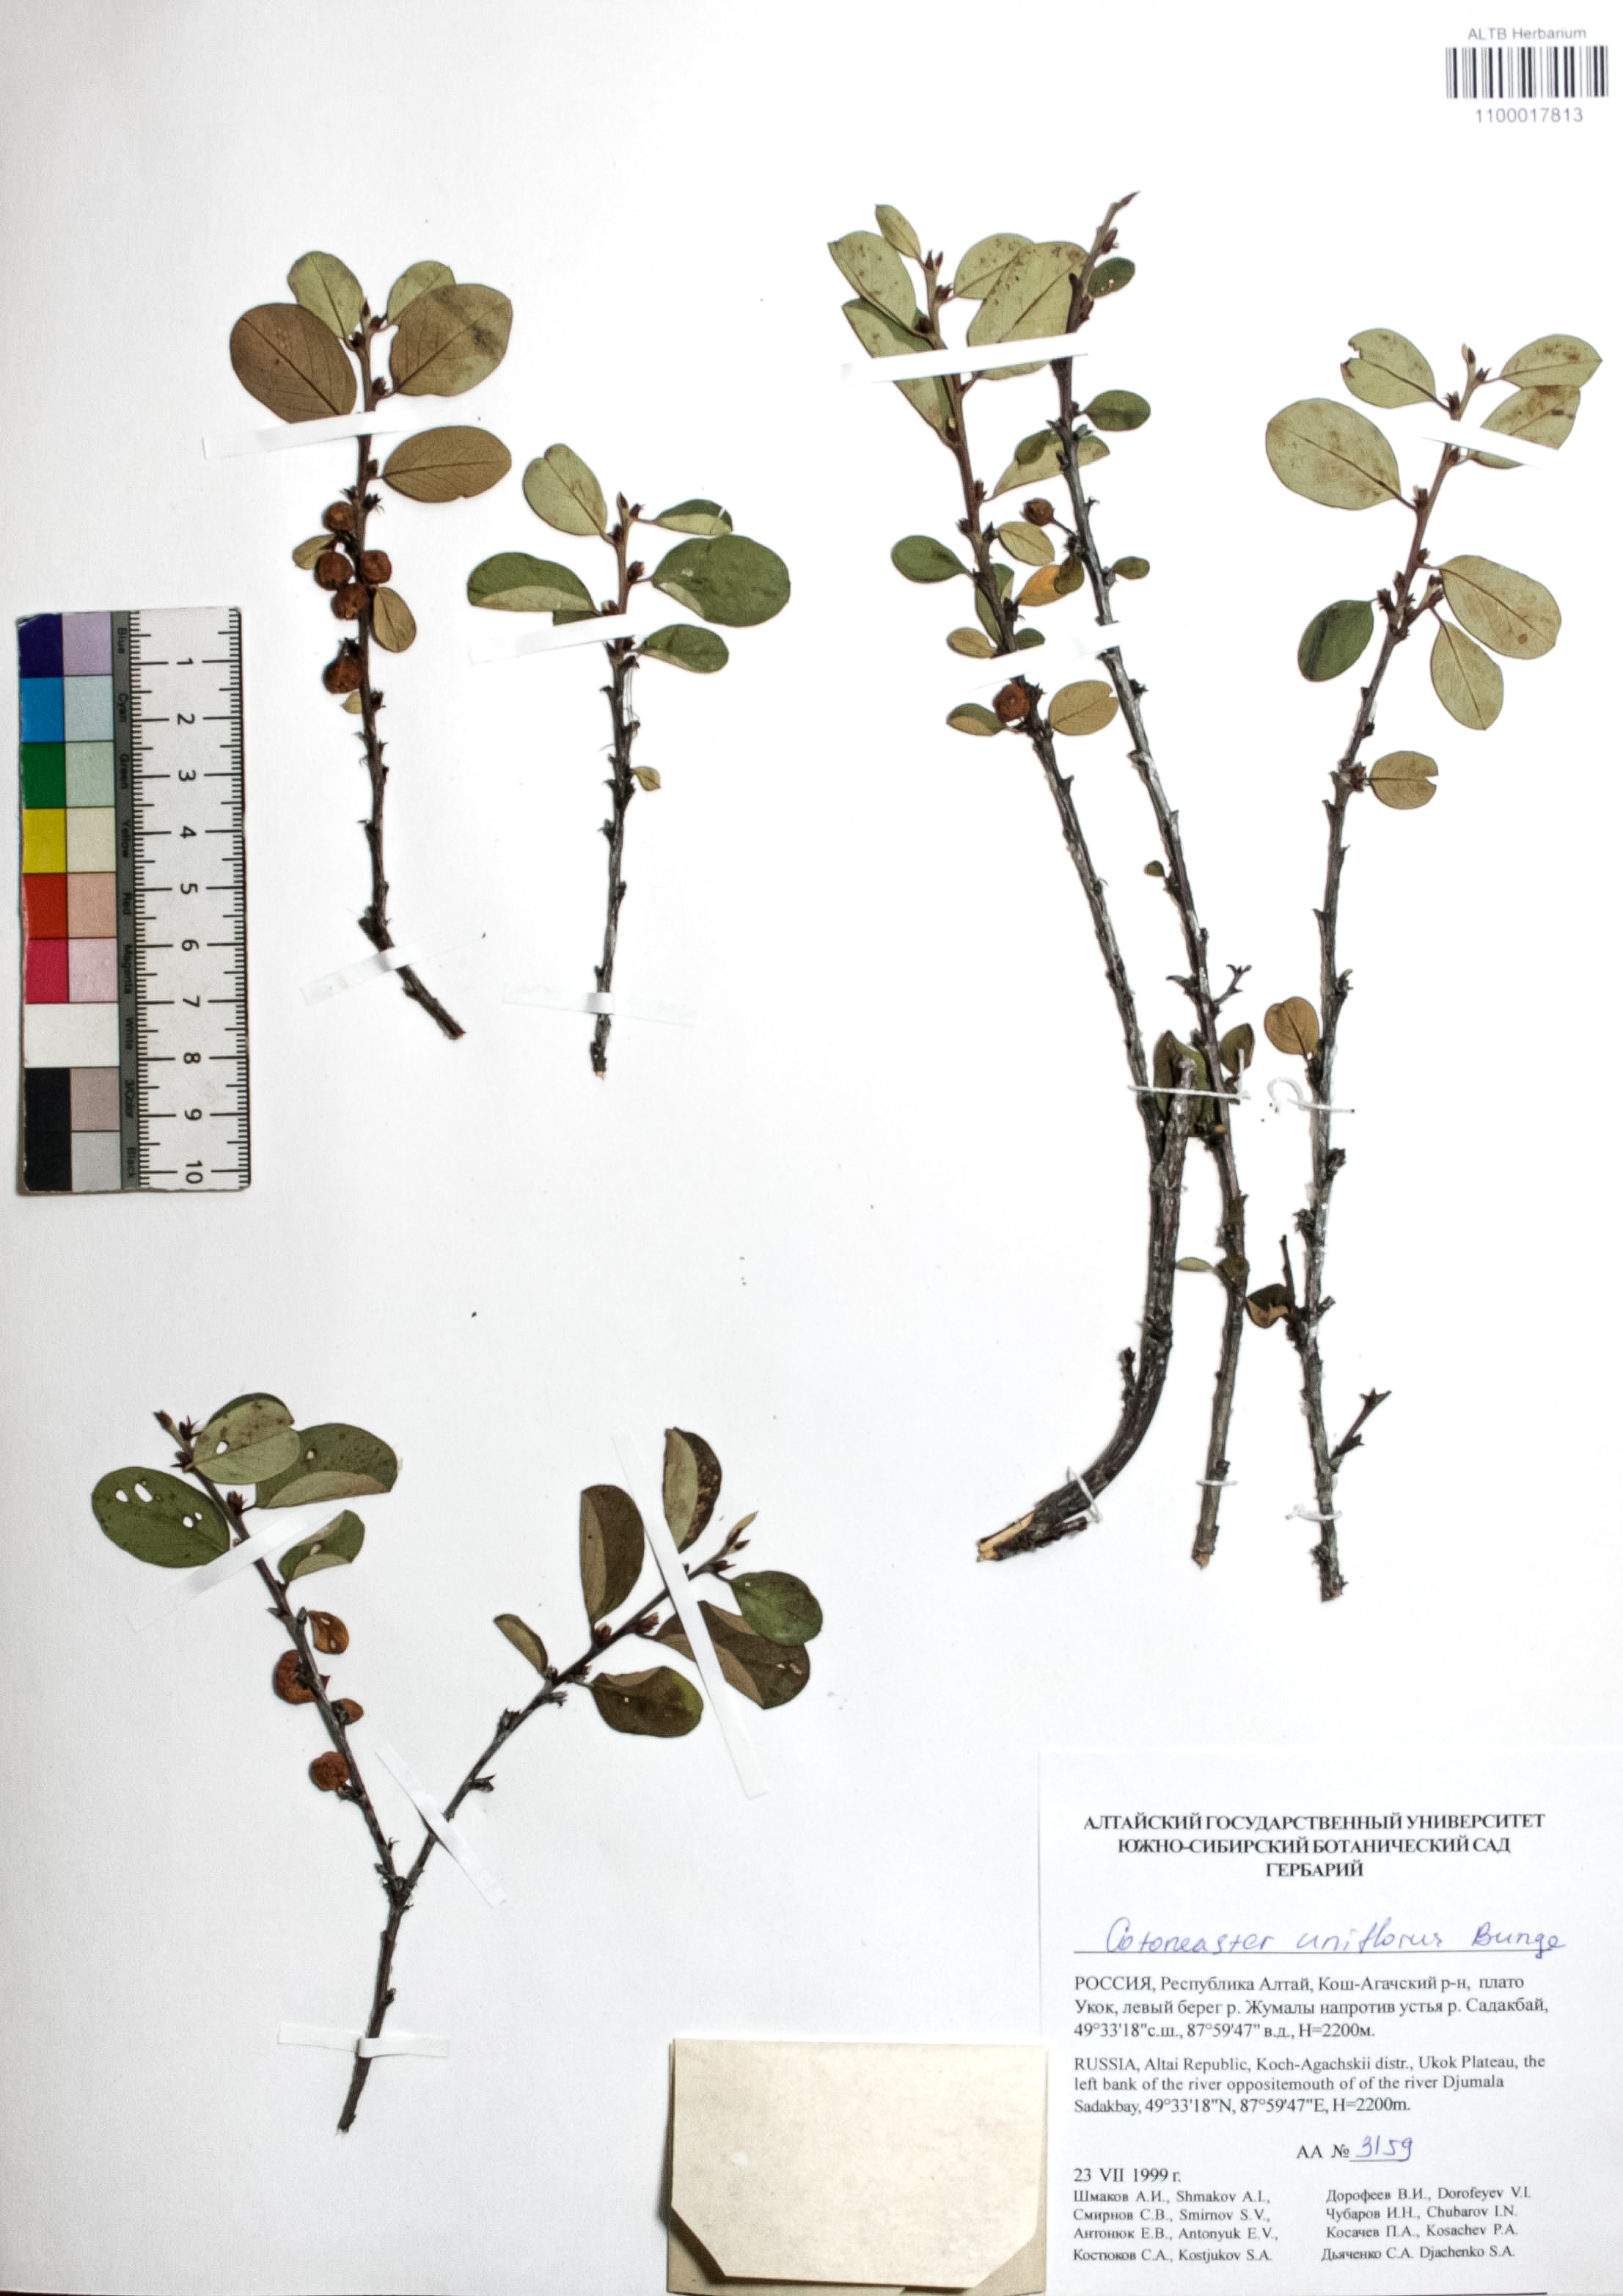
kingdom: Plantae
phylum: Tracheophyta
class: Magnoliopsida
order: Rosales
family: Rosaceae
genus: Cotoneaster
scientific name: Cotoneaster uniflorus
